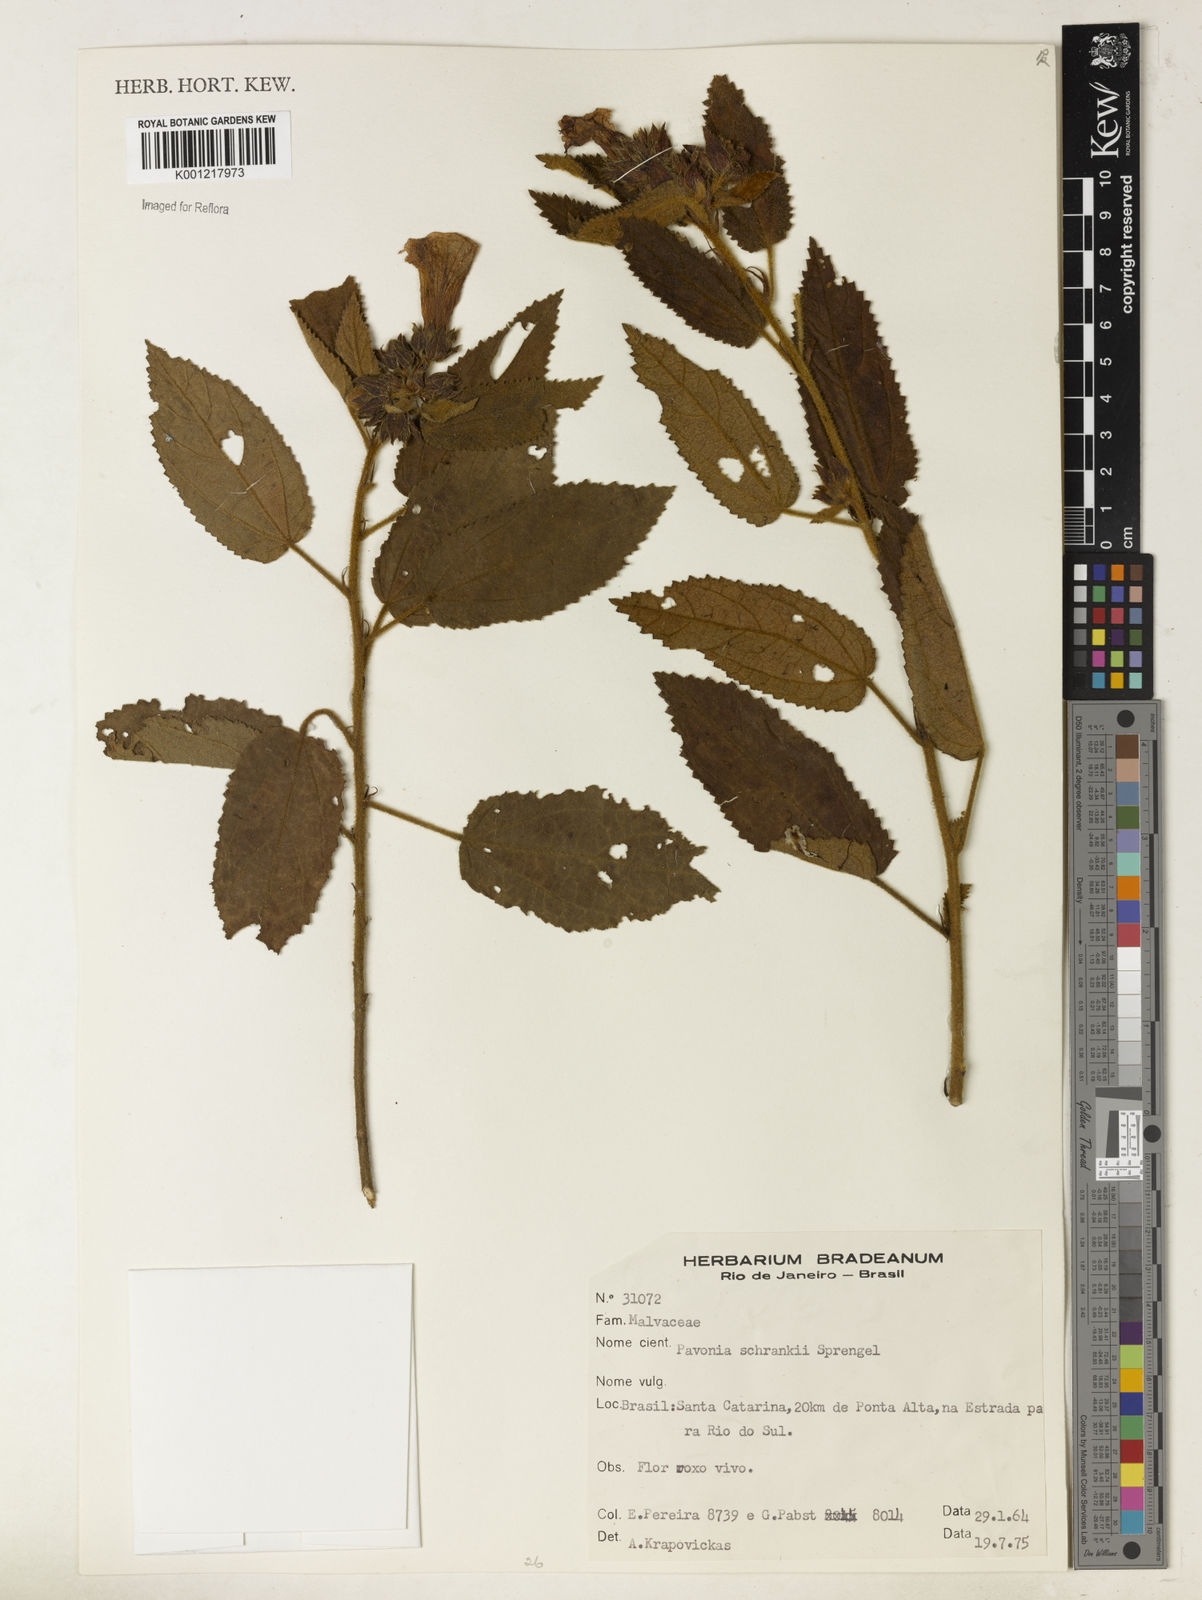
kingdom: Plantae
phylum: Tracheophyta
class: Magnoliopsida
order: Malvales
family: Malvaceae
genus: Pavonia
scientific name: Pavonia schrankii
